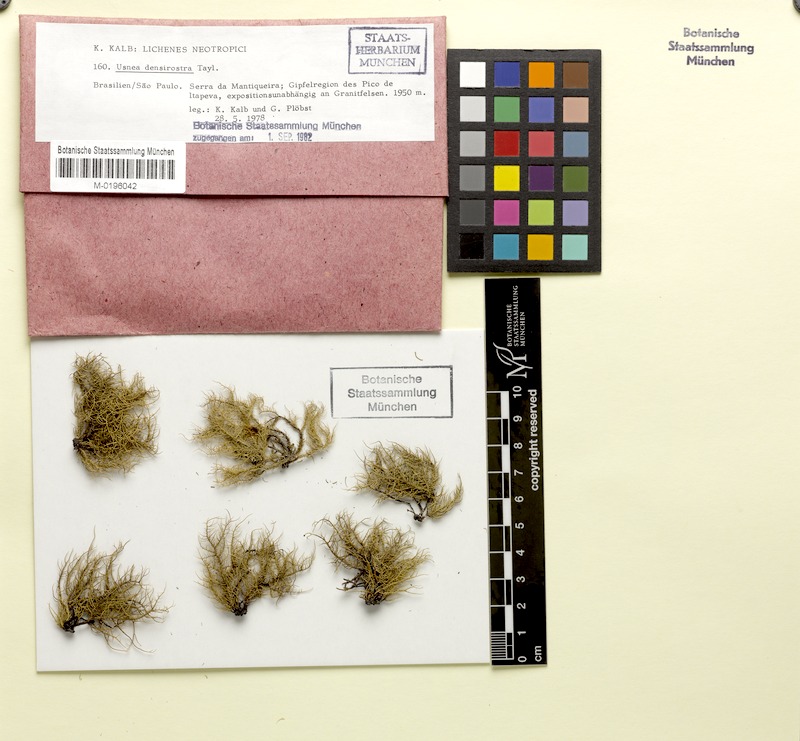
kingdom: Fungi
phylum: Ascomycota
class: Lecanoromycetes
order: Lecanorales
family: Parmeliaceae
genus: Usnea
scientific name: Usnea densirostra
